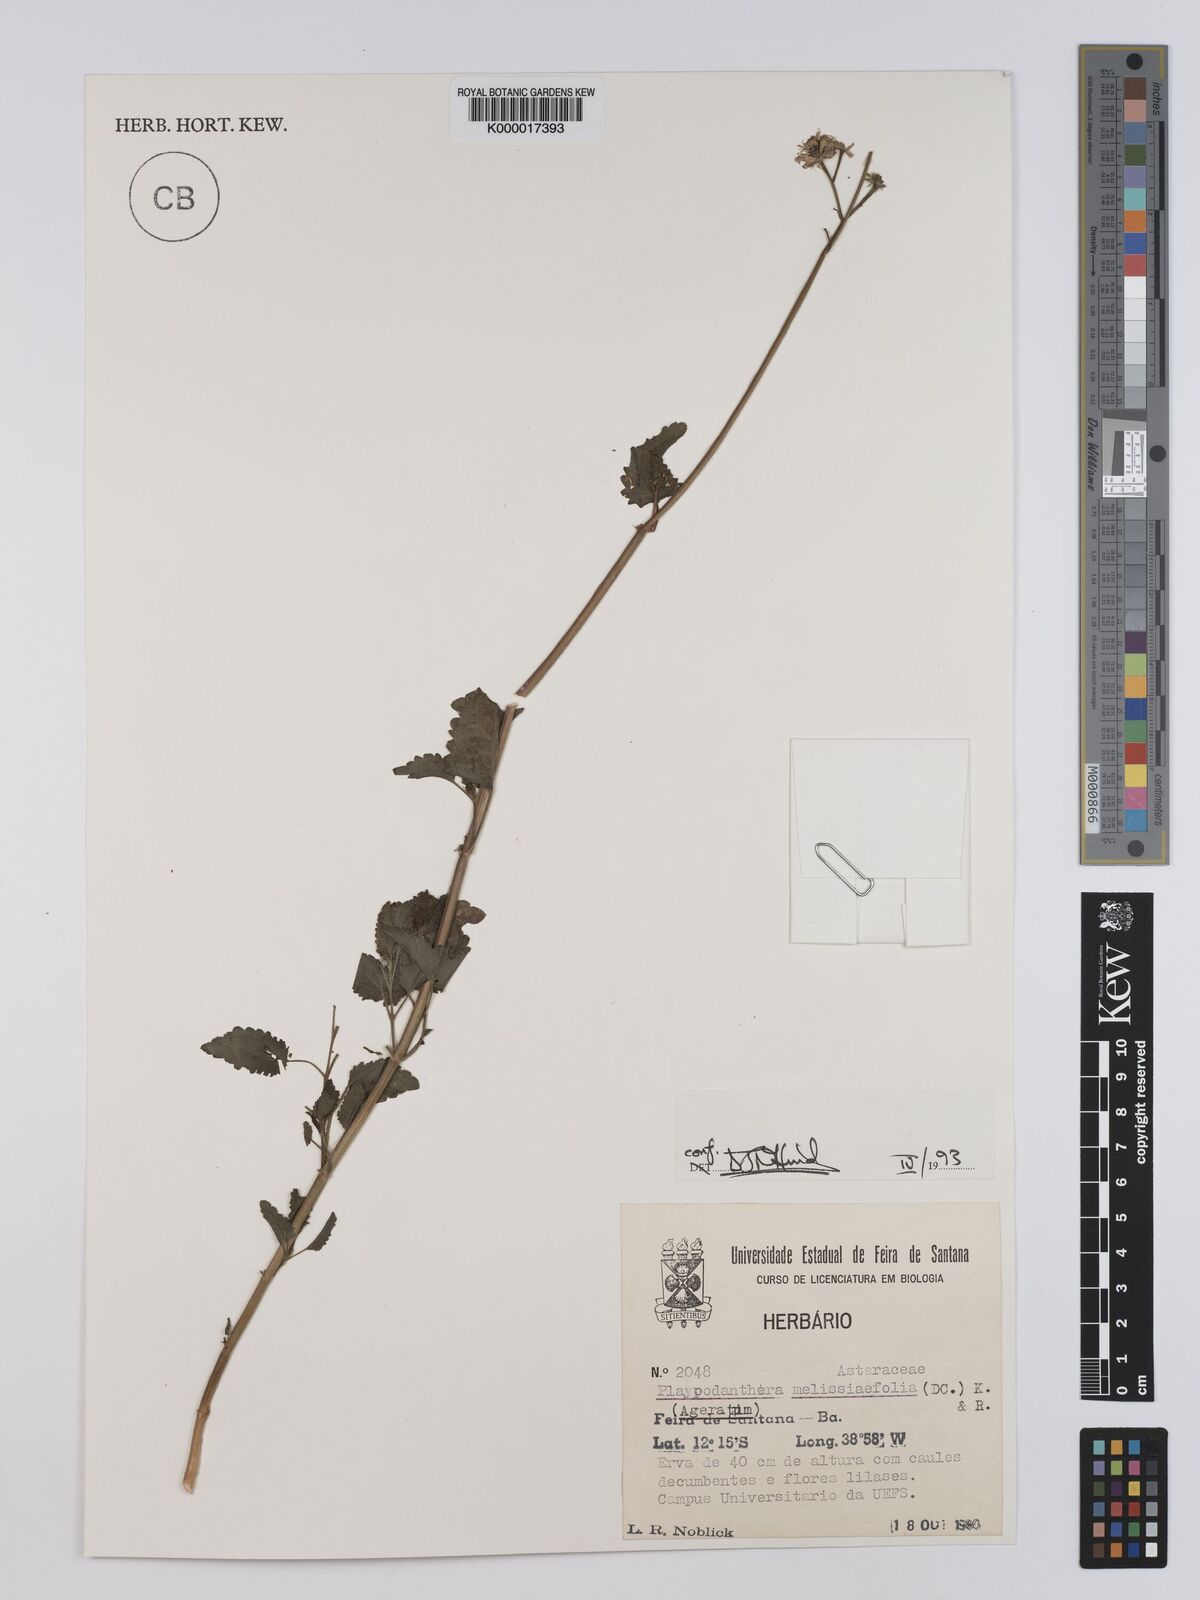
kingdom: Plantae
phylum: Tracheophyta
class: Magnoliopsida
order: Asterales
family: Asteraceae
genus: Platypodanthera
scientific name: Platypodanthera melissifolia
